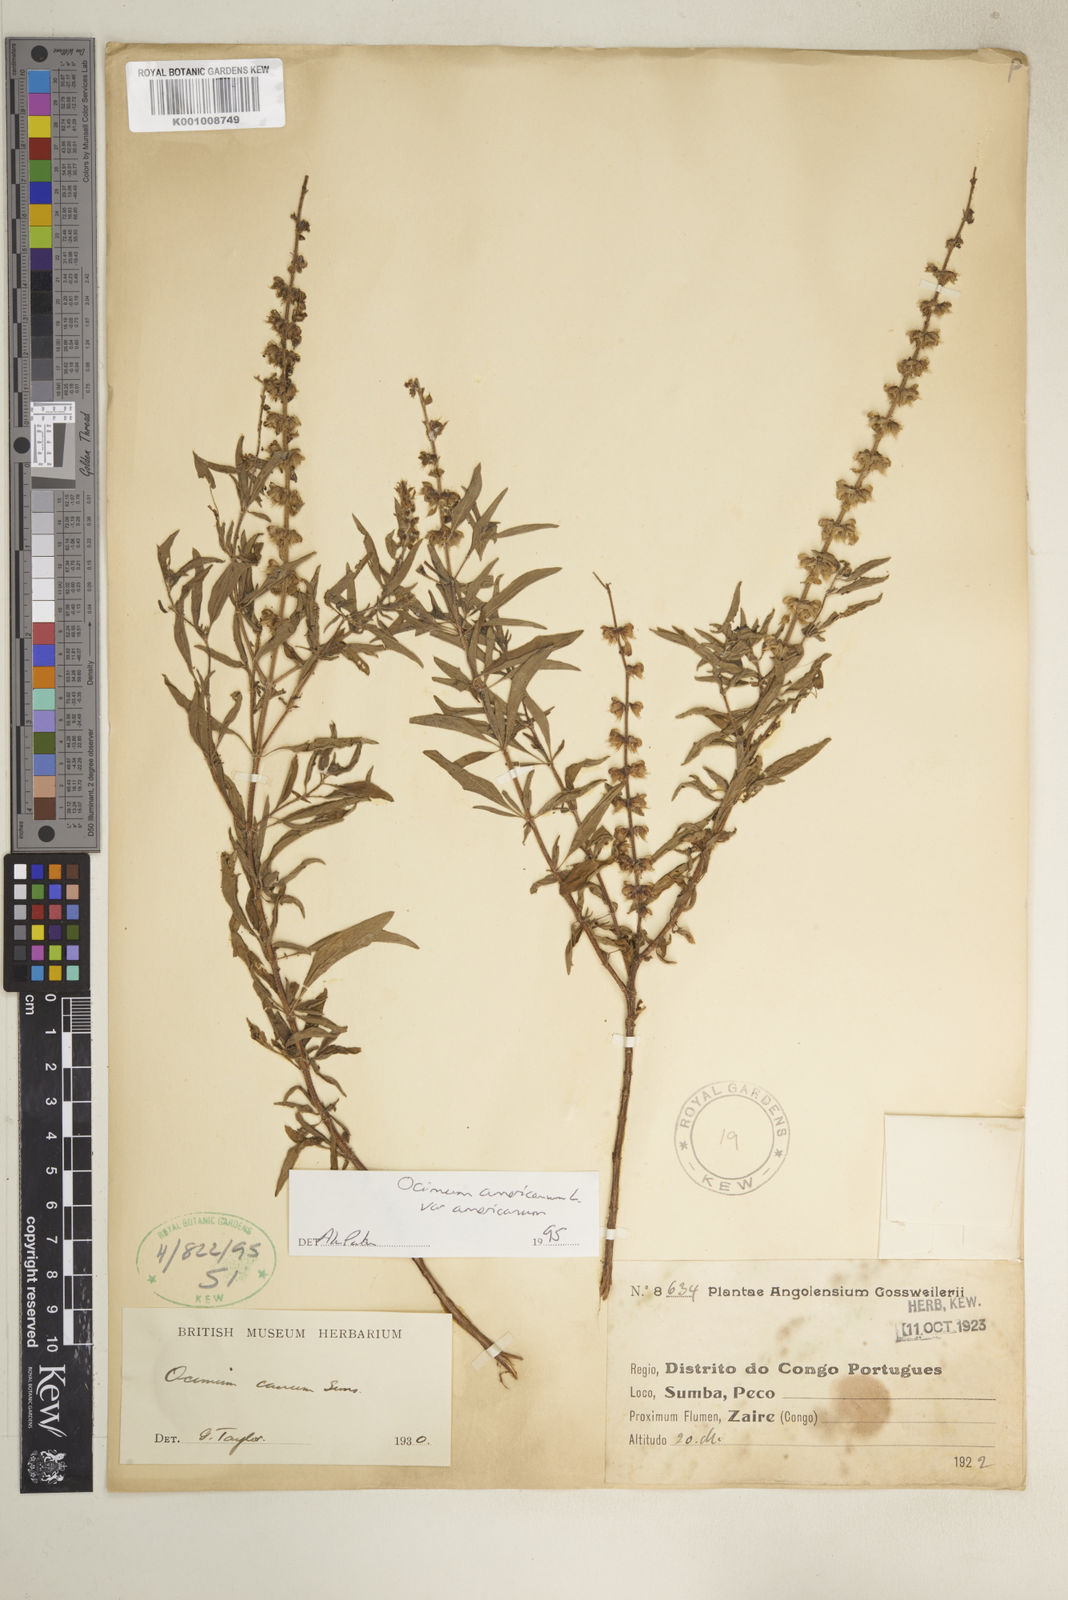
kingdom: Plantae
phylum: Tracheophyta
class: Magnoliopsida
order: Lamiales
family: Lamiaceae
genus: Ocimum
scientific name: Ocimum americanum
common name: American basil
